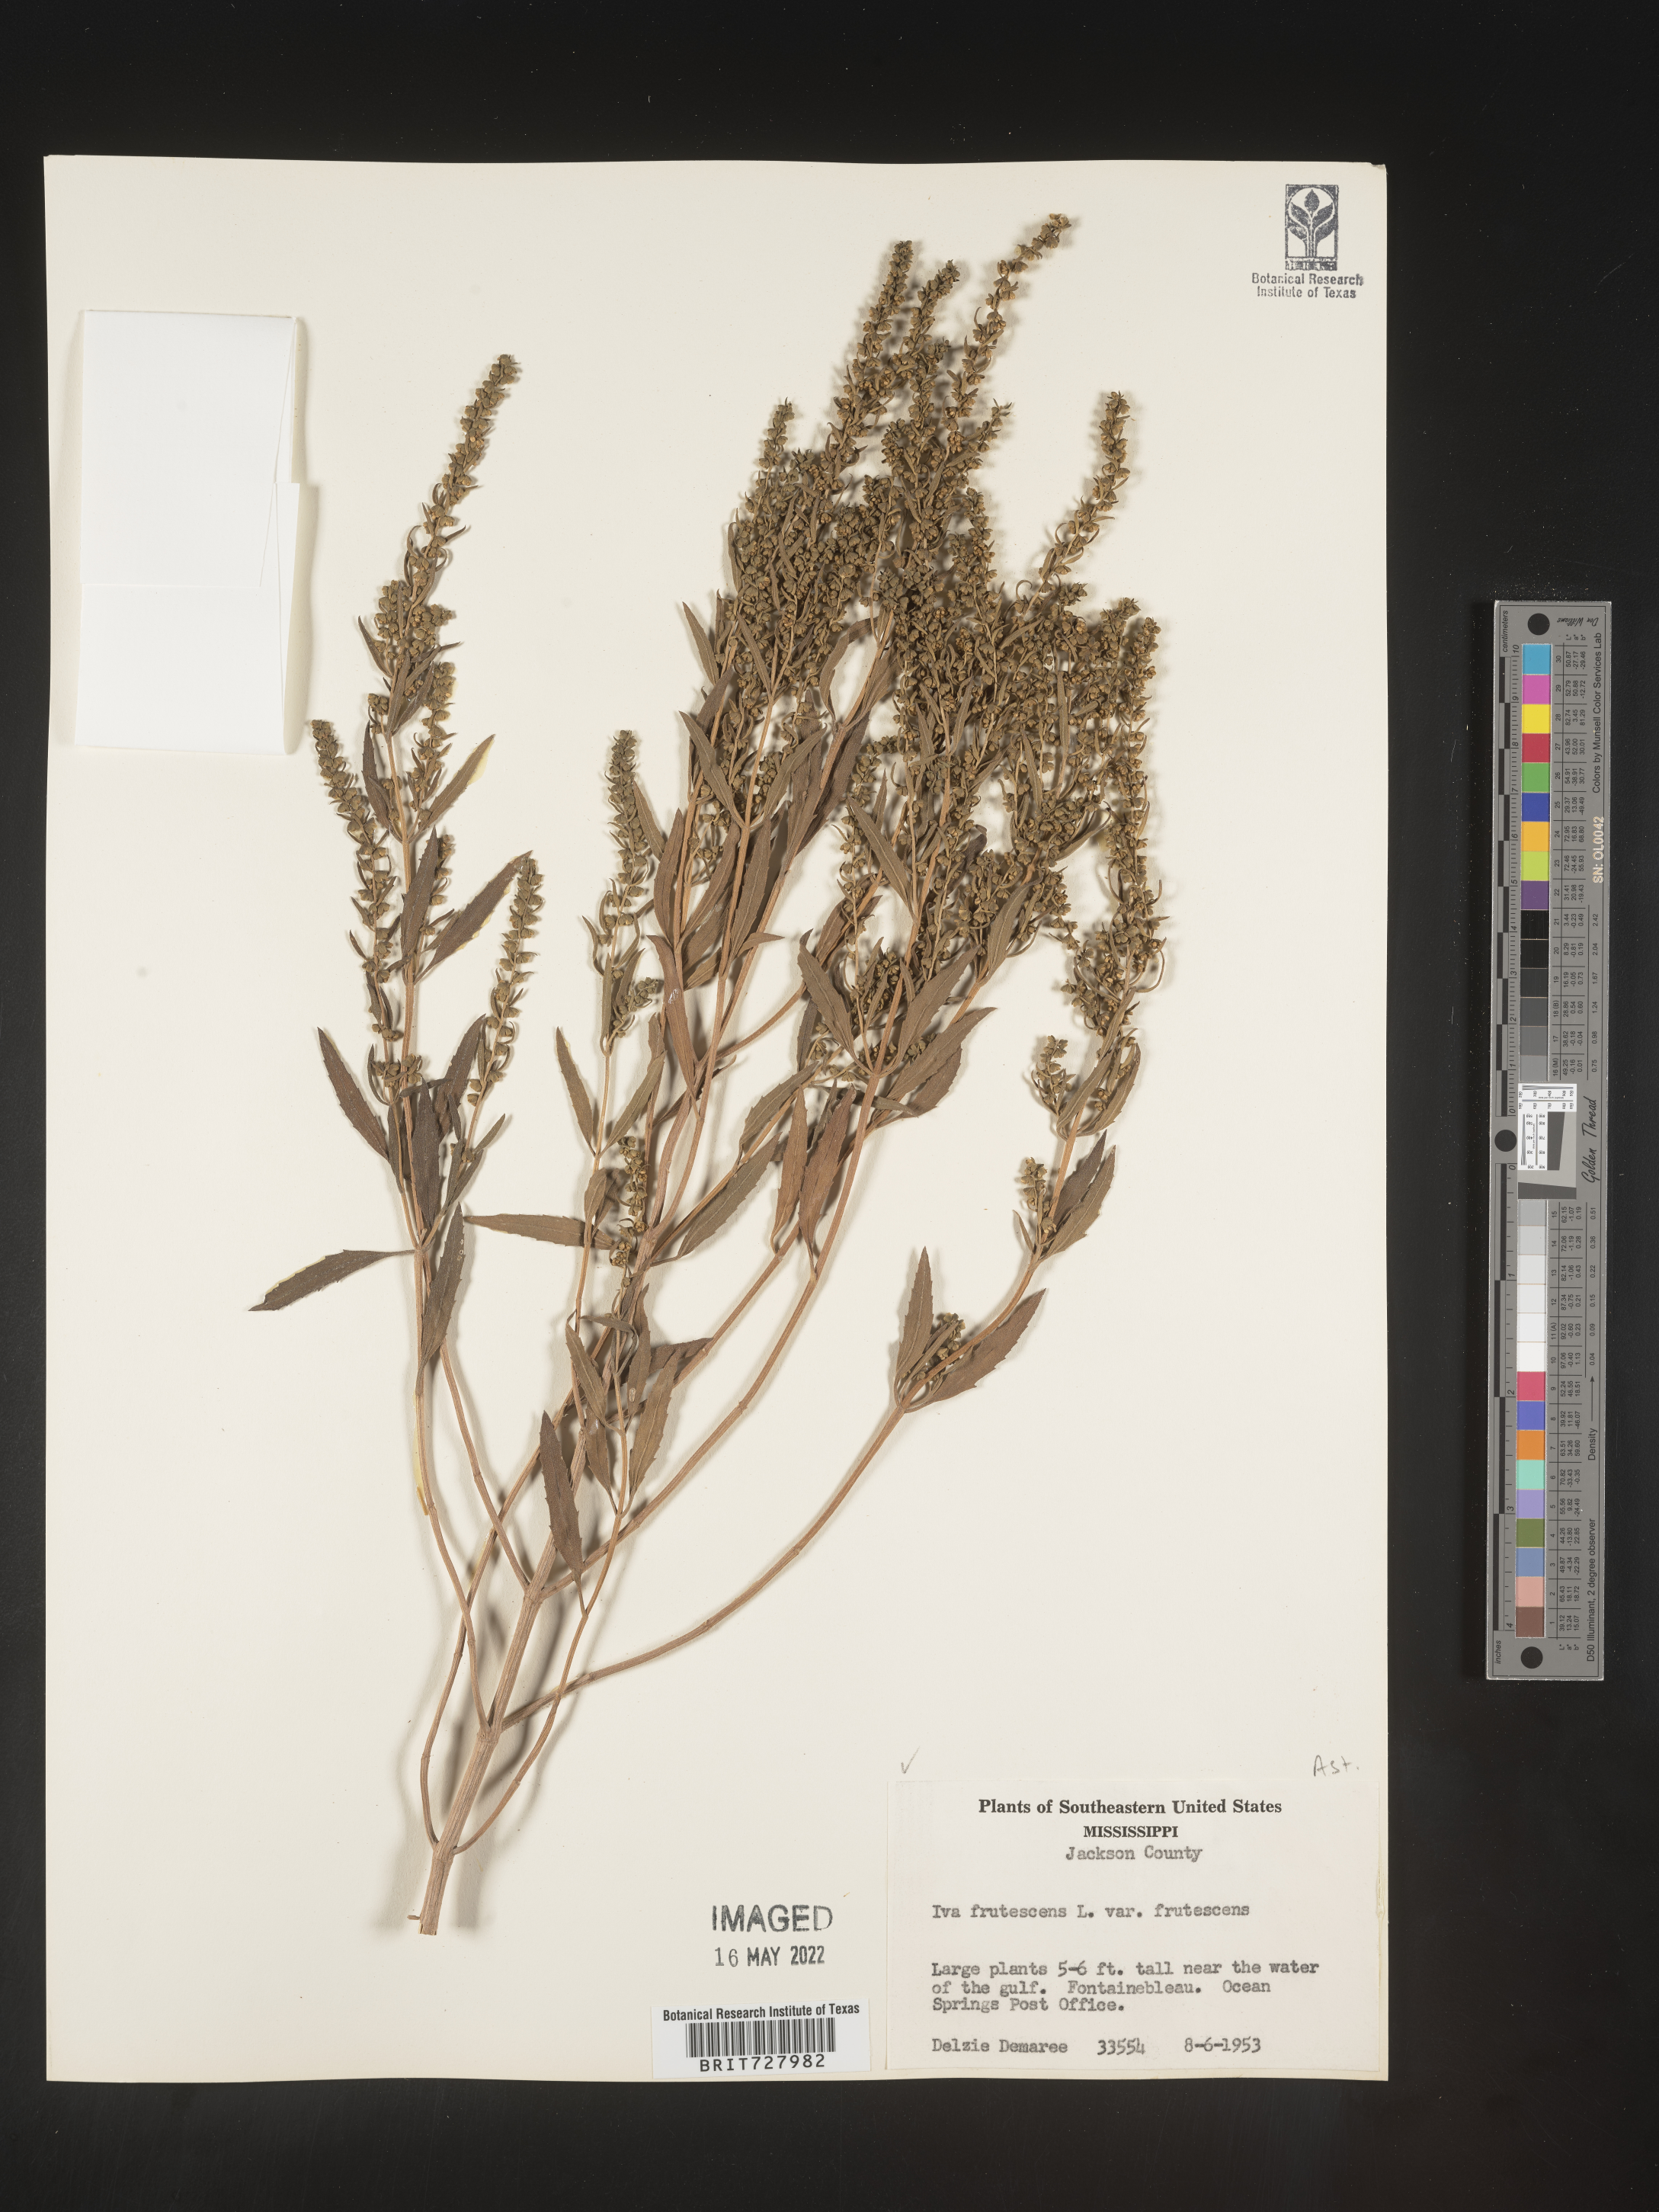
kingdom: Plantae
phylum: Tracheophyta
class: Magnoliopsida
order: Asterales
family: Asteraceae
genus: Iva
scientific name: Iva frutescens
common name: Big-leaved marsh-elder
